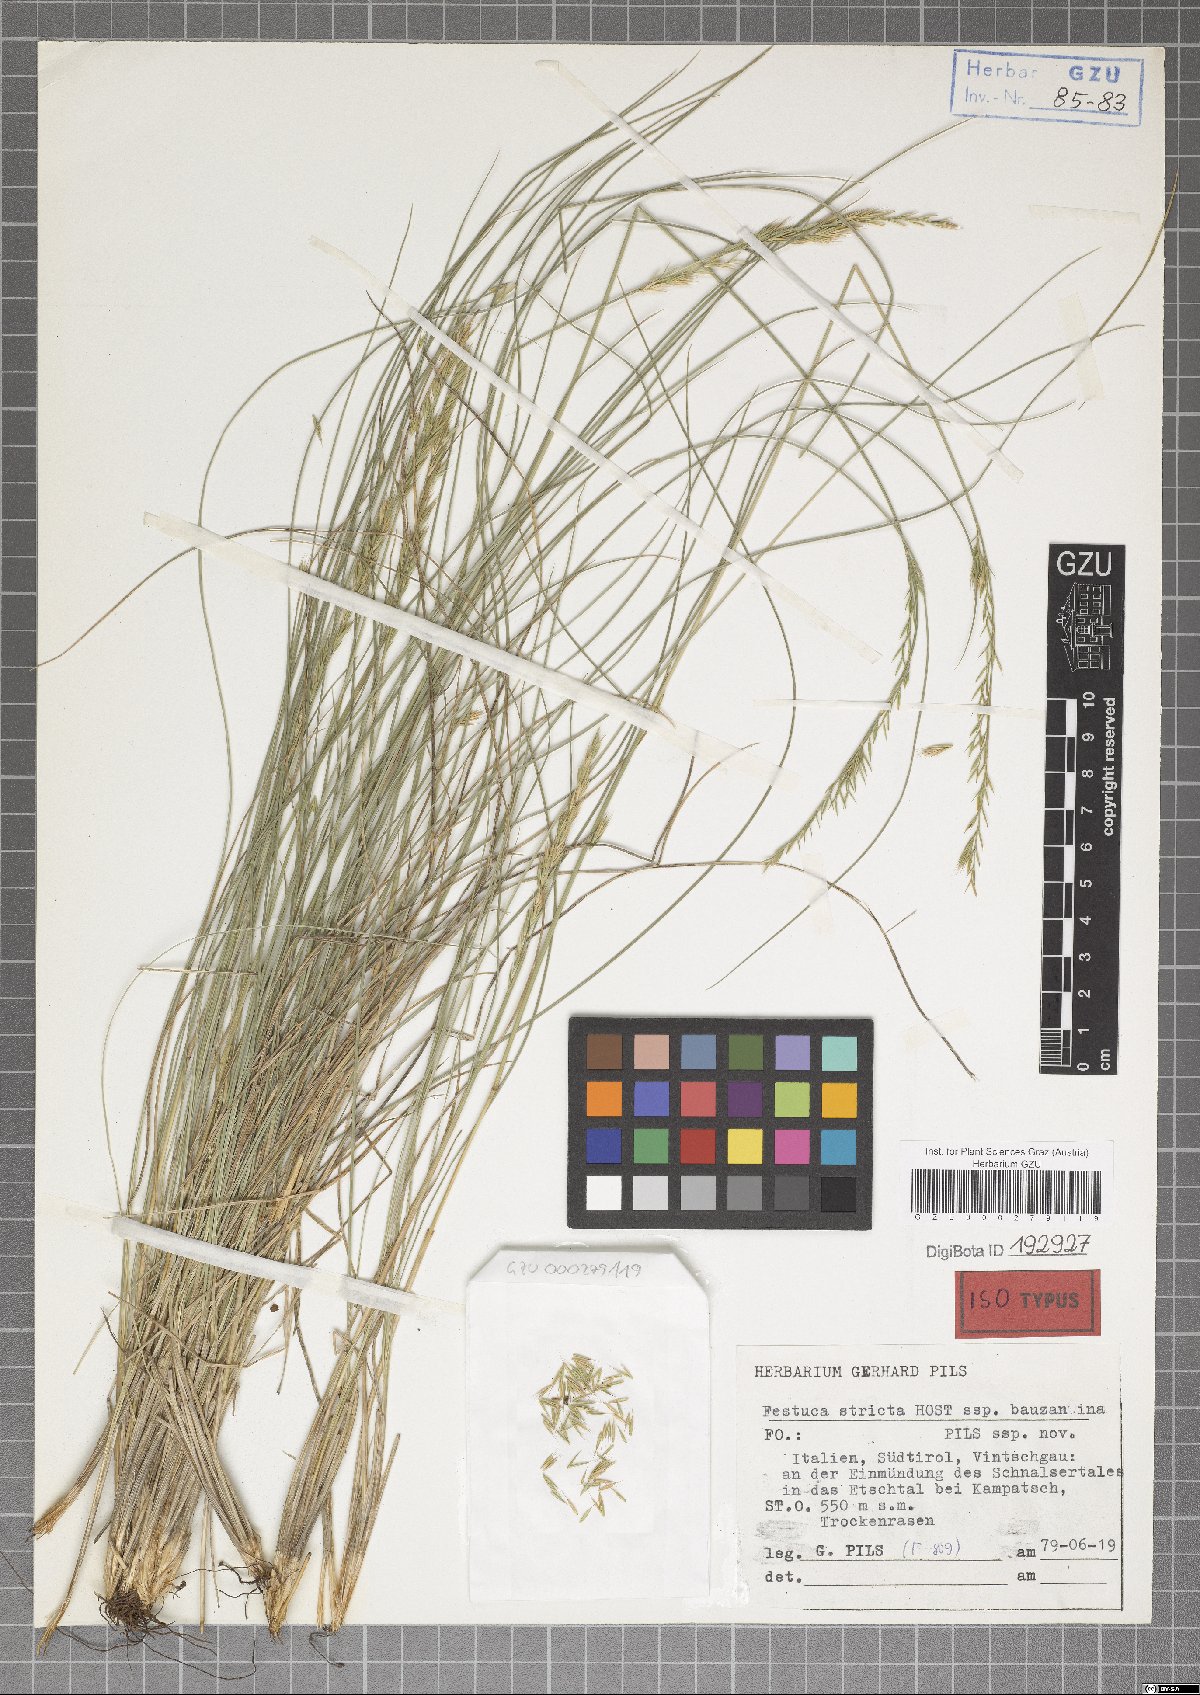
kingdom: Plantae
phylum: Tracheophyta
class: Liliopsida
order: Poales
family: Poaceae
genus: Festuca
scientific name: Festuca bauzanina
